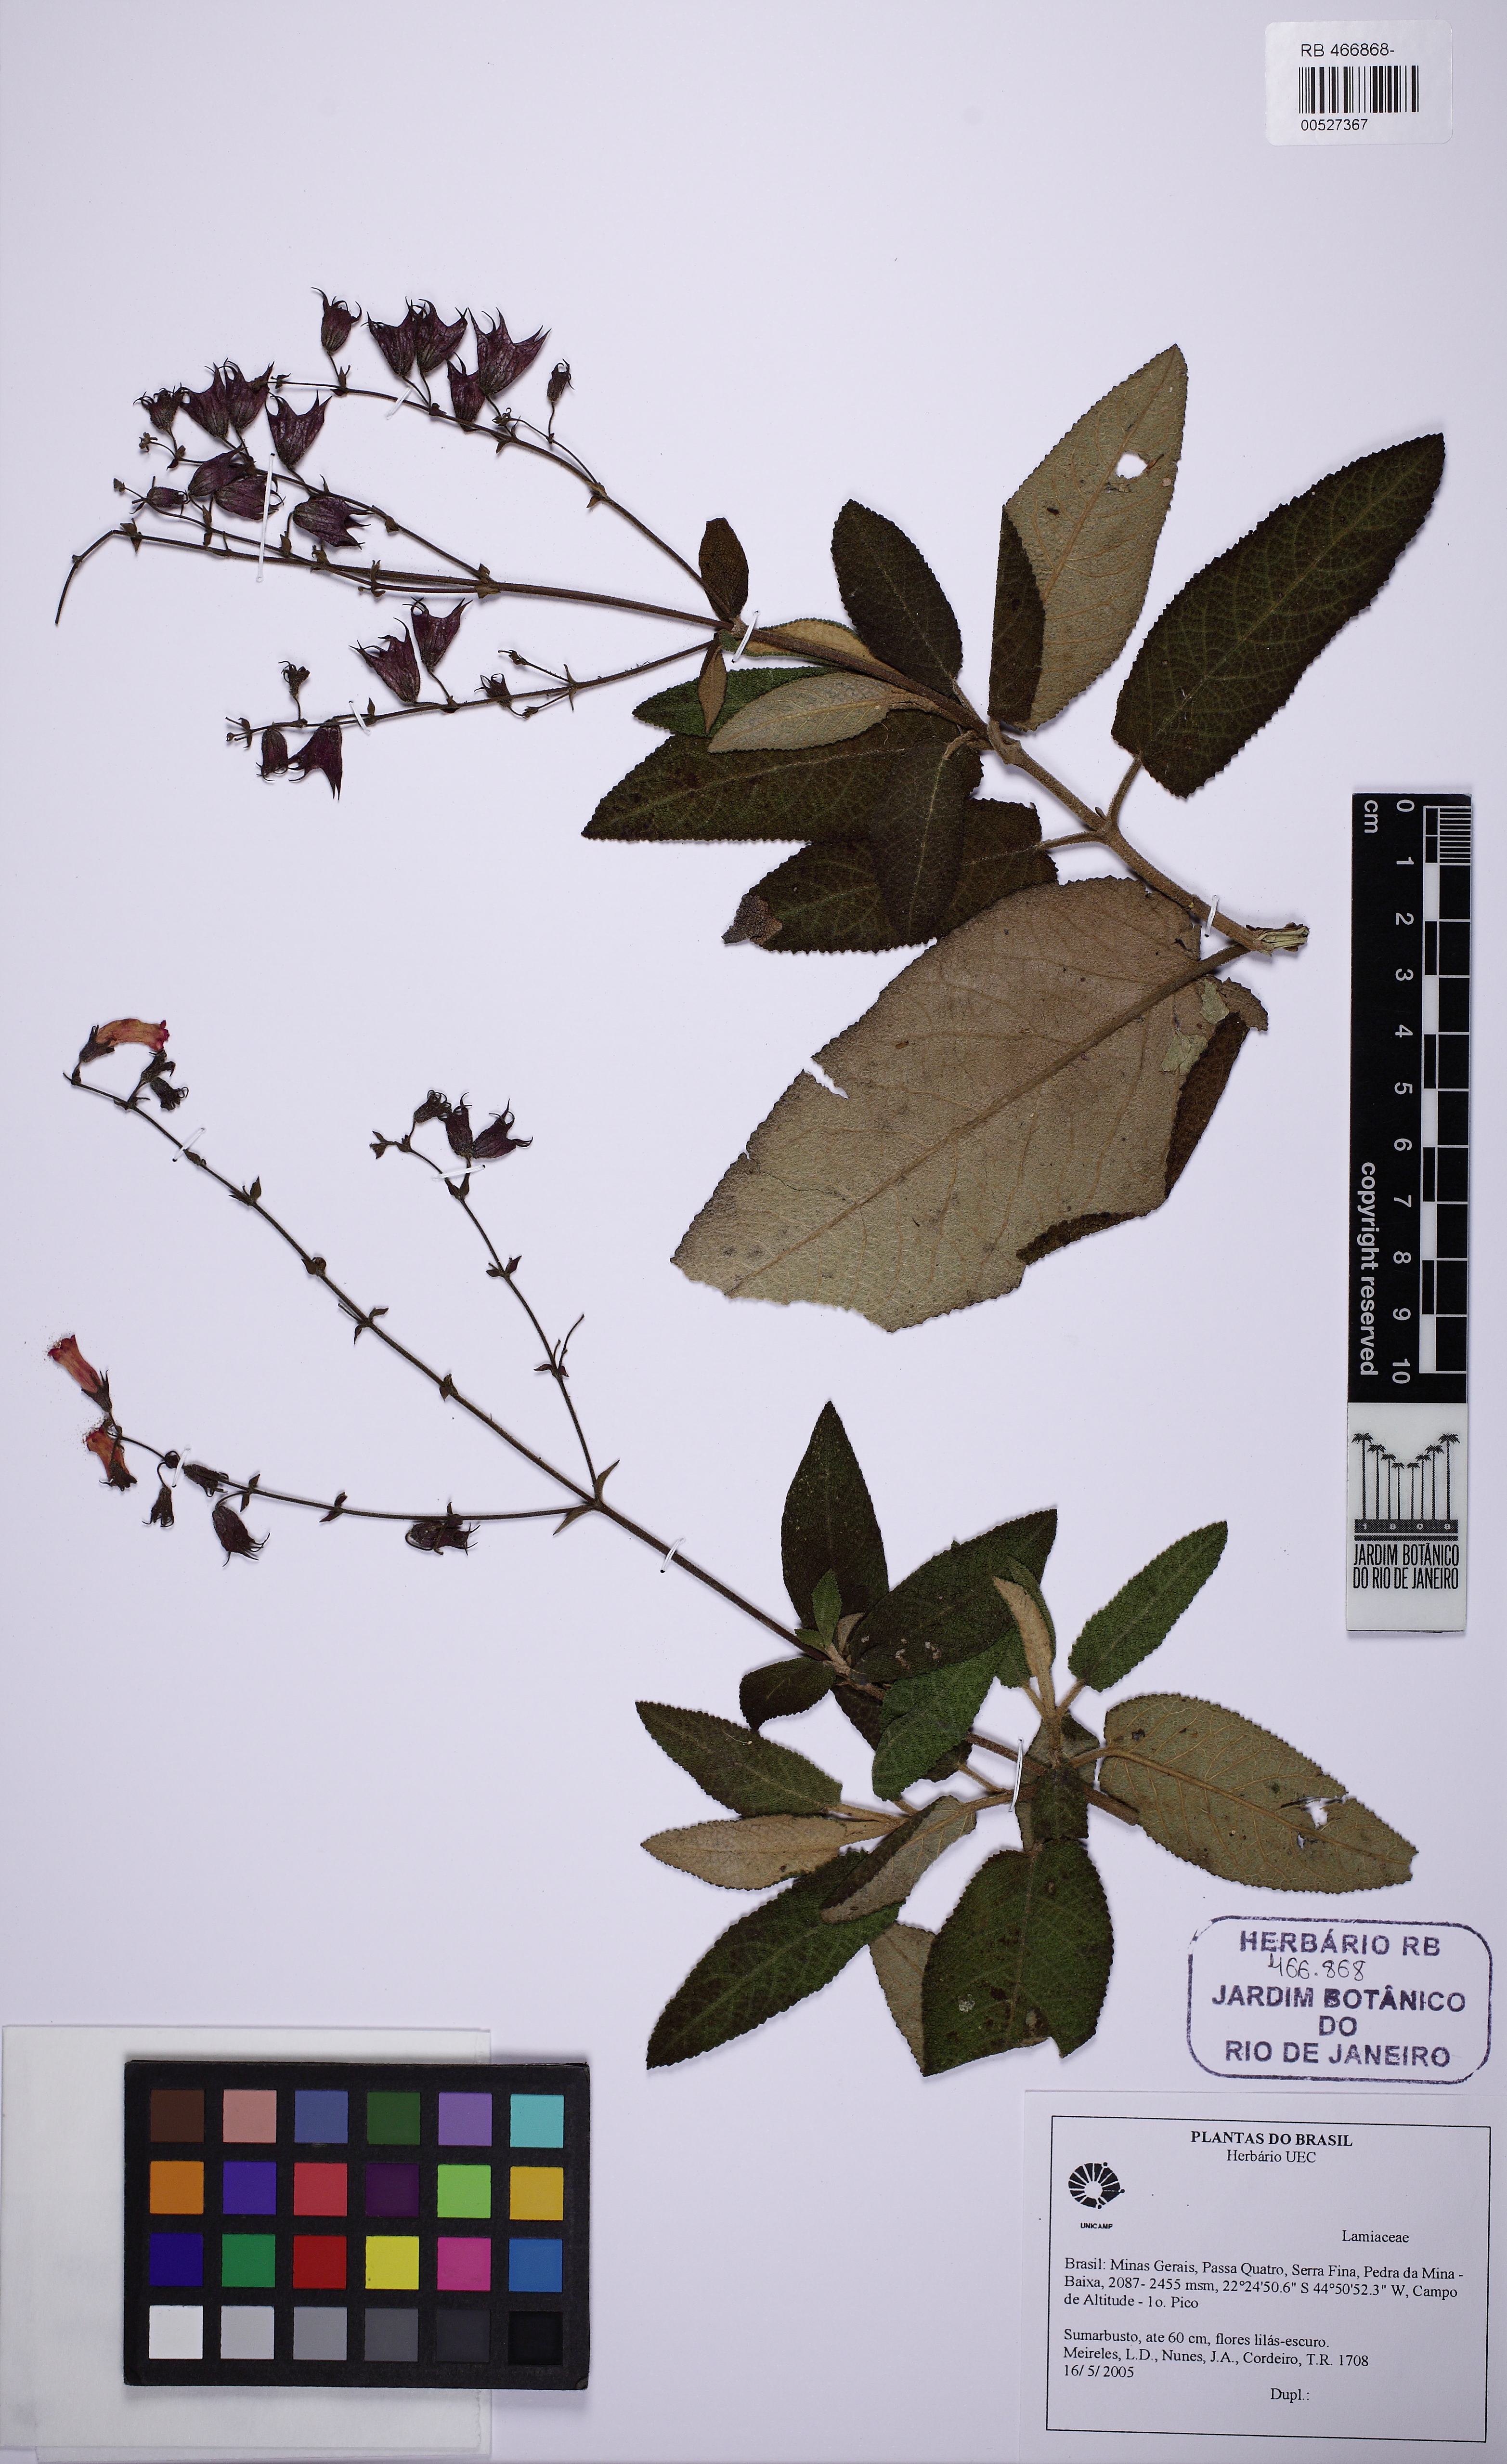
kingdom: Plantae
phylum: Tracheophyta
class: Magnoliopsida
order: Lamiales
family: Lamiaceae
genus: Lepechinia
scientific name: Lepechinia speciosa
